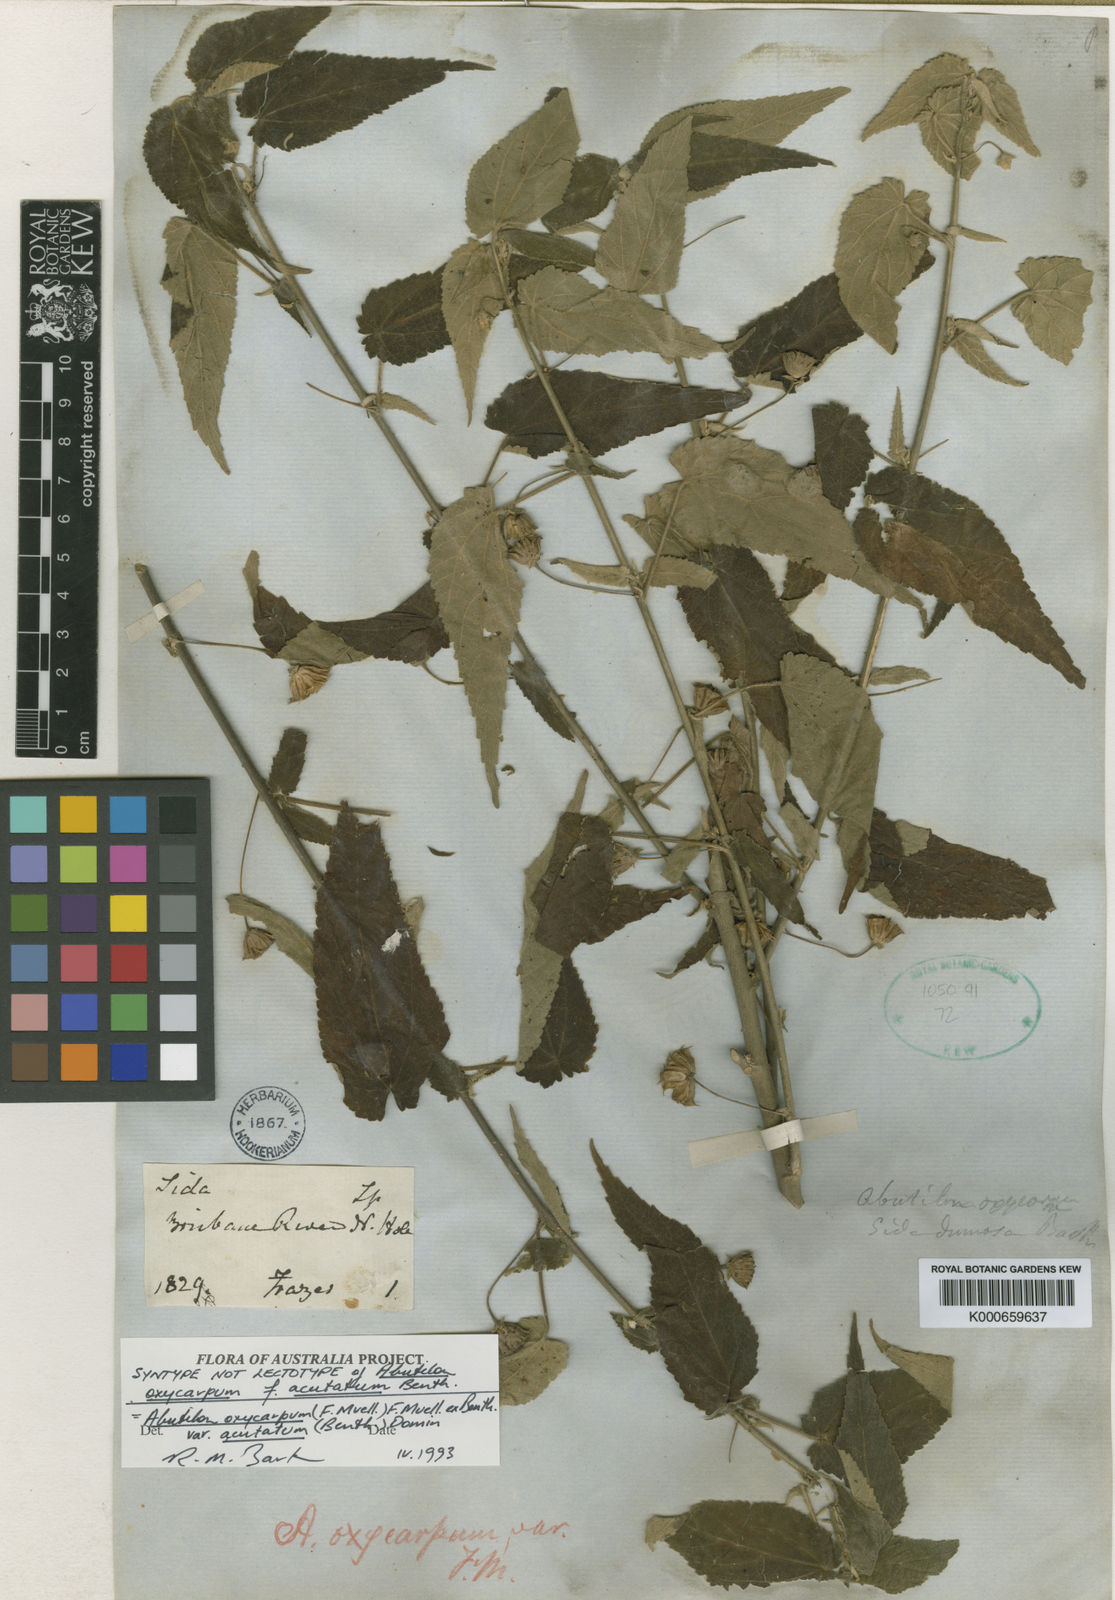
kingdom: Plantae
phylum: Tracheophyta
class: Magnoliopsida
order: Malvales
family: Malvaceae
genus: Abutilon
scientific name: Abutilon oxycarpum
